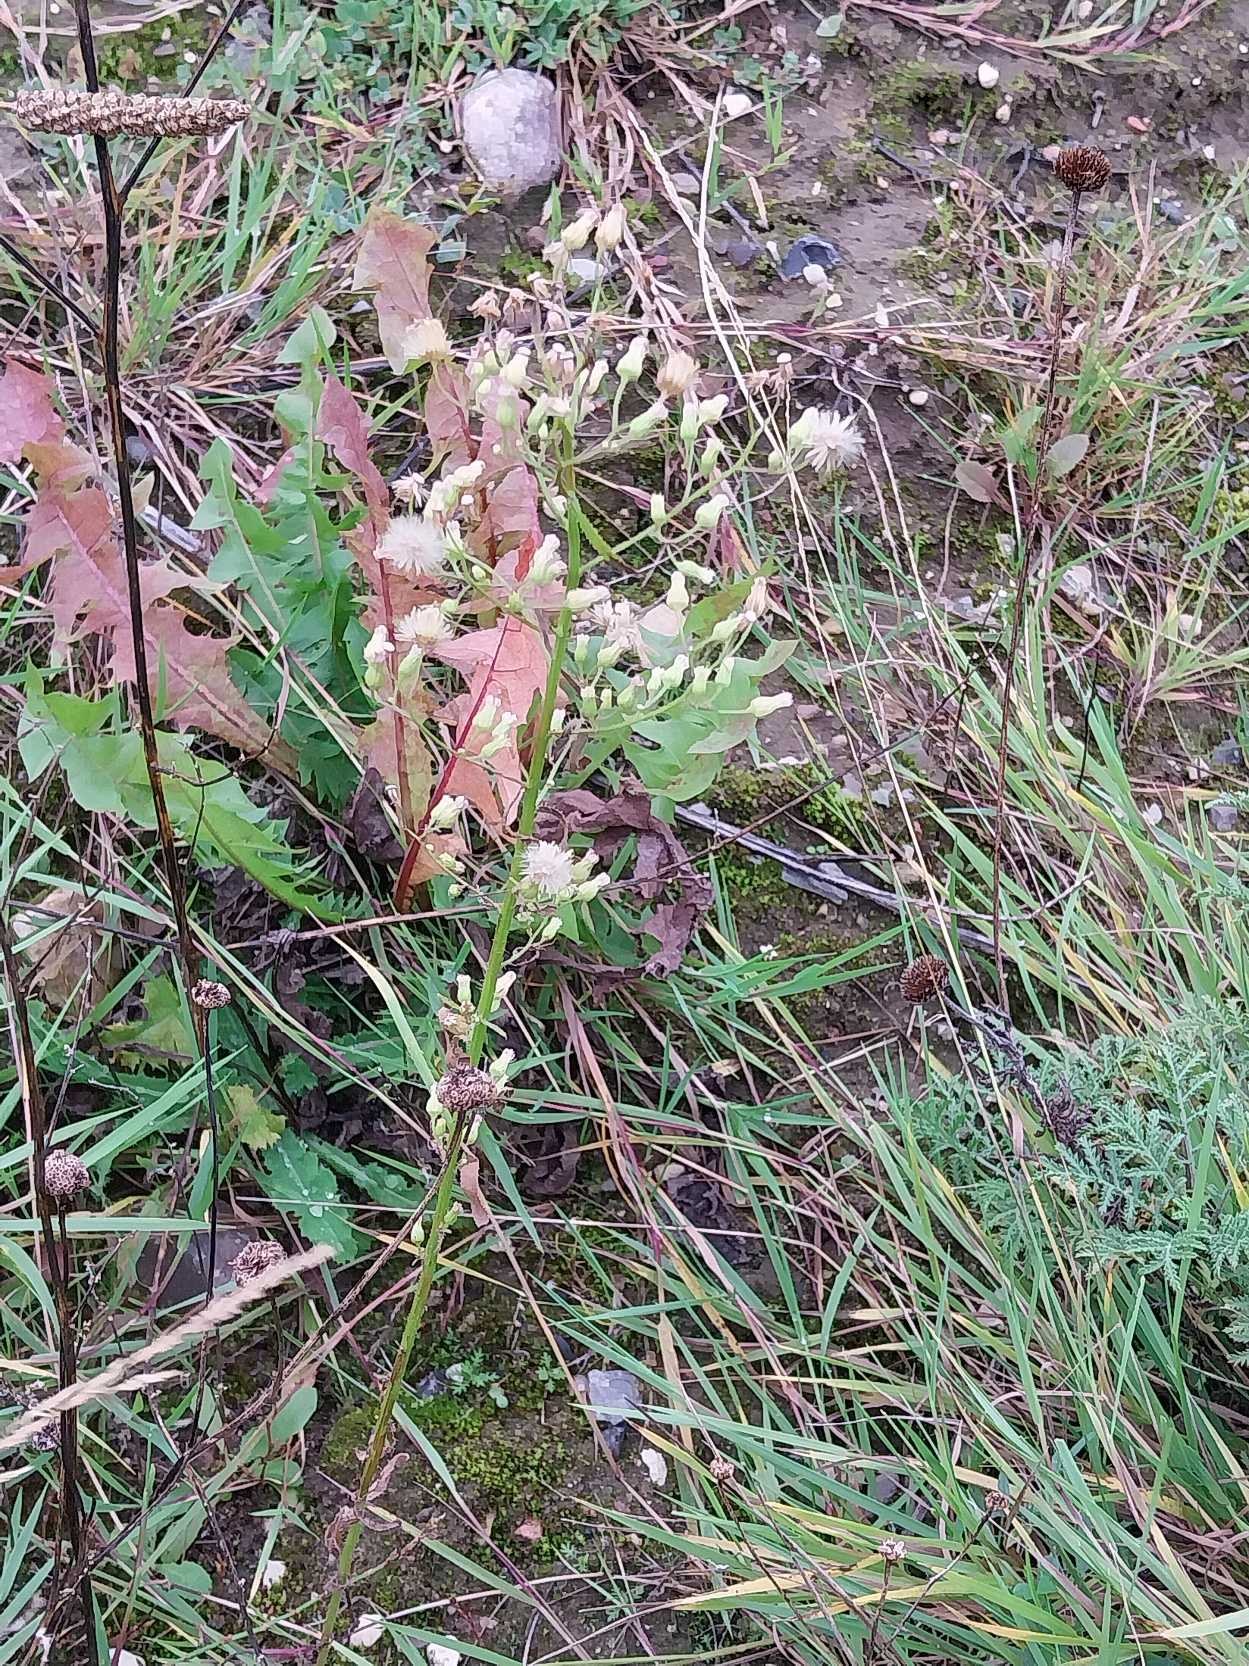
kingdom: Plantae
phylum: Tracheophyta
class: Magnoliopsida
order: Asterales
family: Asteraceae
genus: Erigeron
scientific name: Erigeron canadensis
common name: Kanadisk bakkestjerne
